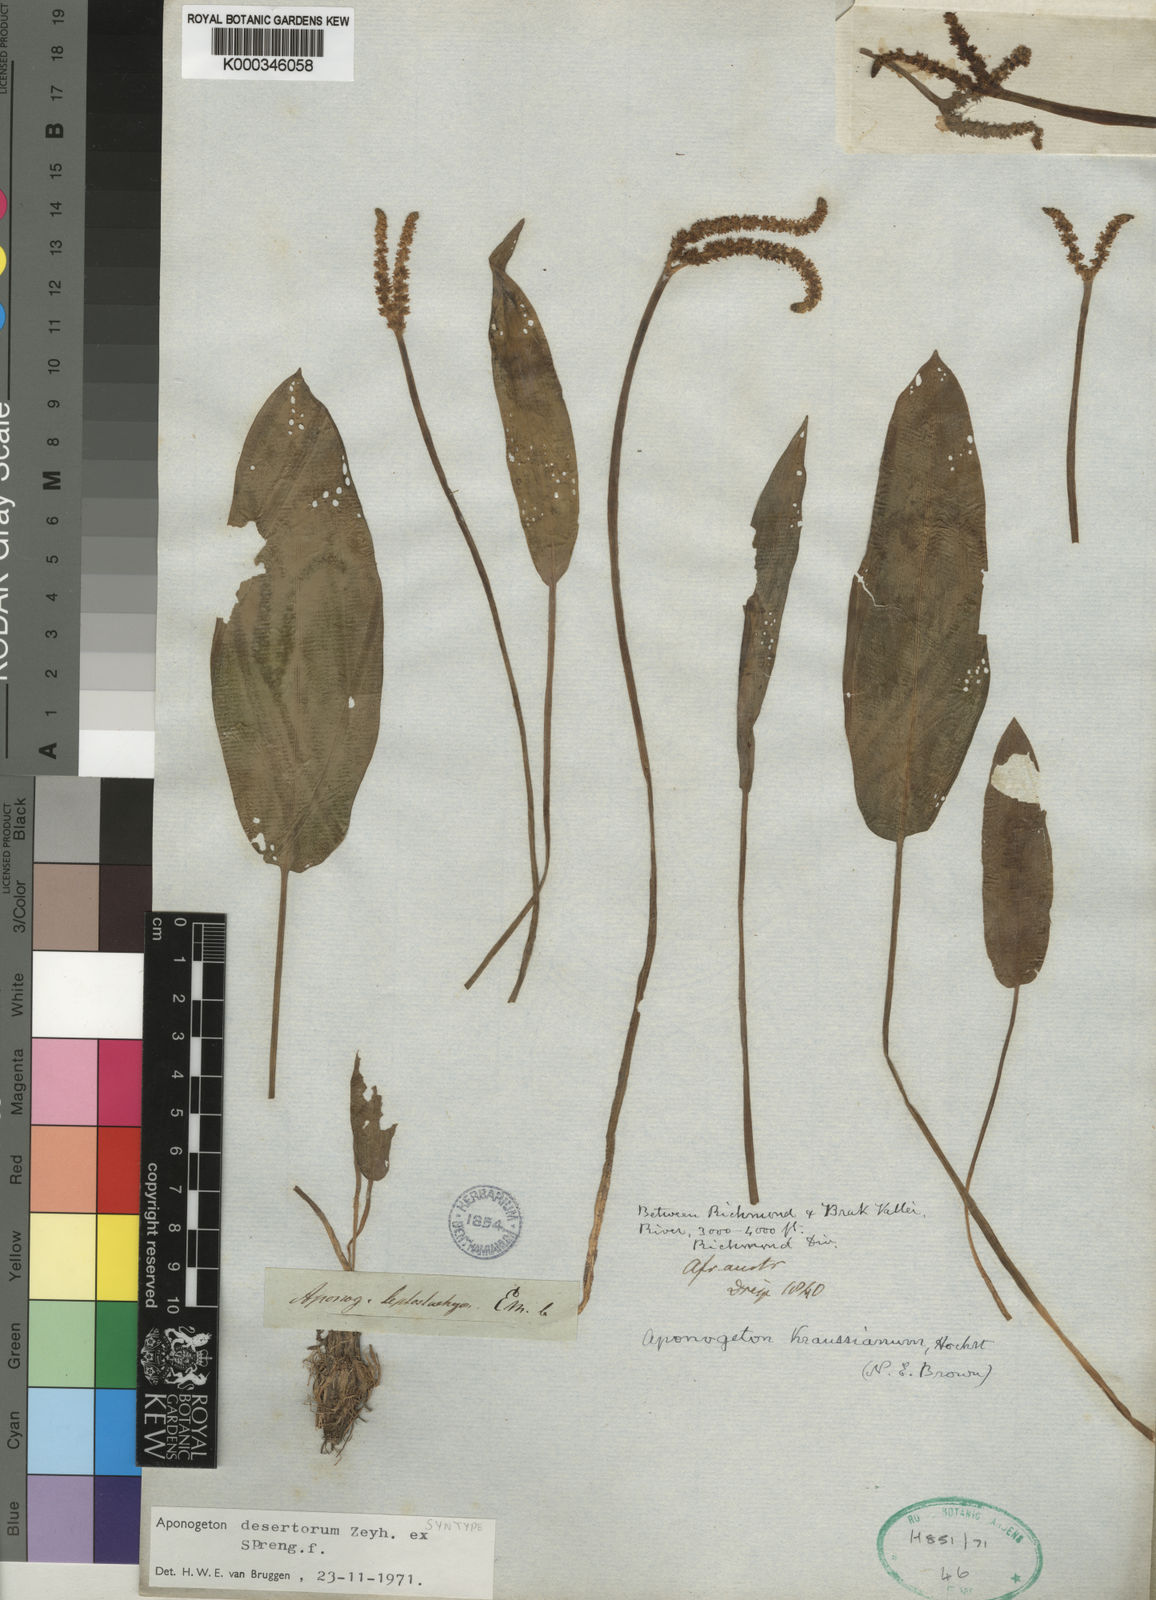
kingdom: Plantae
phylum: Tracheophyta
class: Liliopsida
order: Alismatales
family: Aponogetonaceae
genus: Aponogeton
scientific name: Aponogeton desertorum
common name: Dog-with-two-tails
